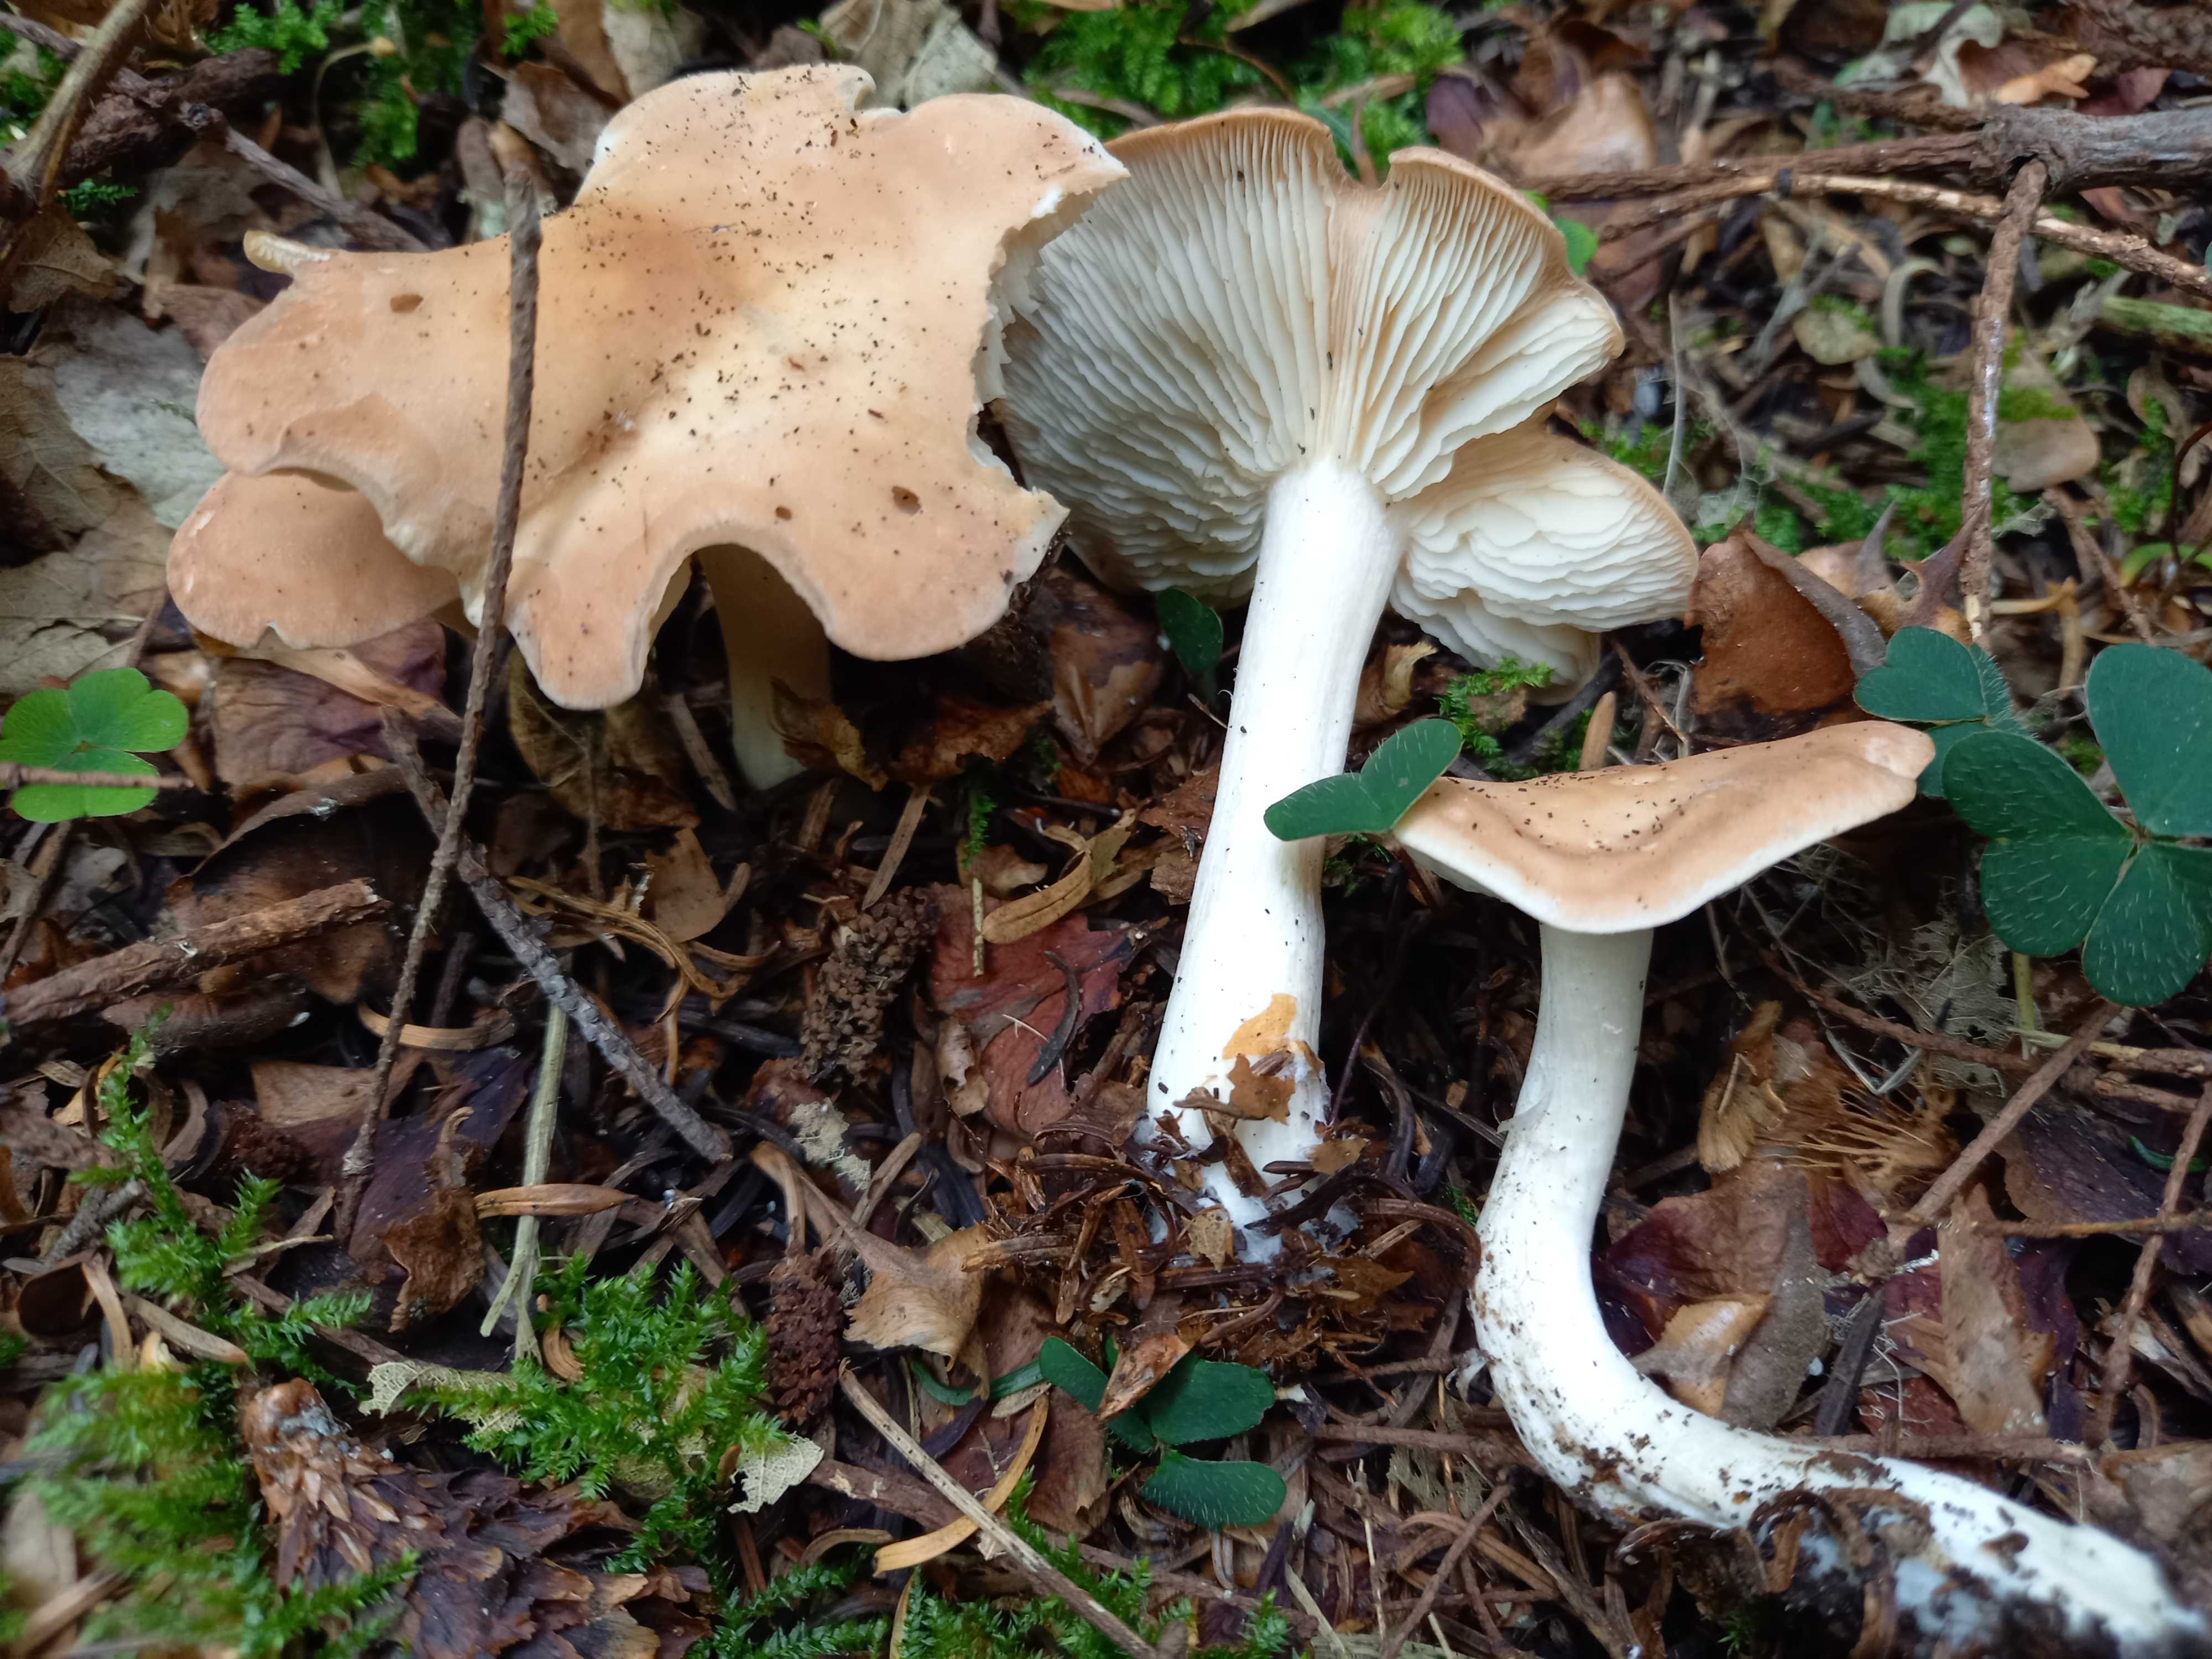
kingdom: Fungi
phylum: Basidiomycota
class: Agaricomycetes
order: Agaricales
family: Lyophyllaceae
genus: Gerhardtia
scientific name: Gerhardtia borealis
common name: rosabrun fagerhat
